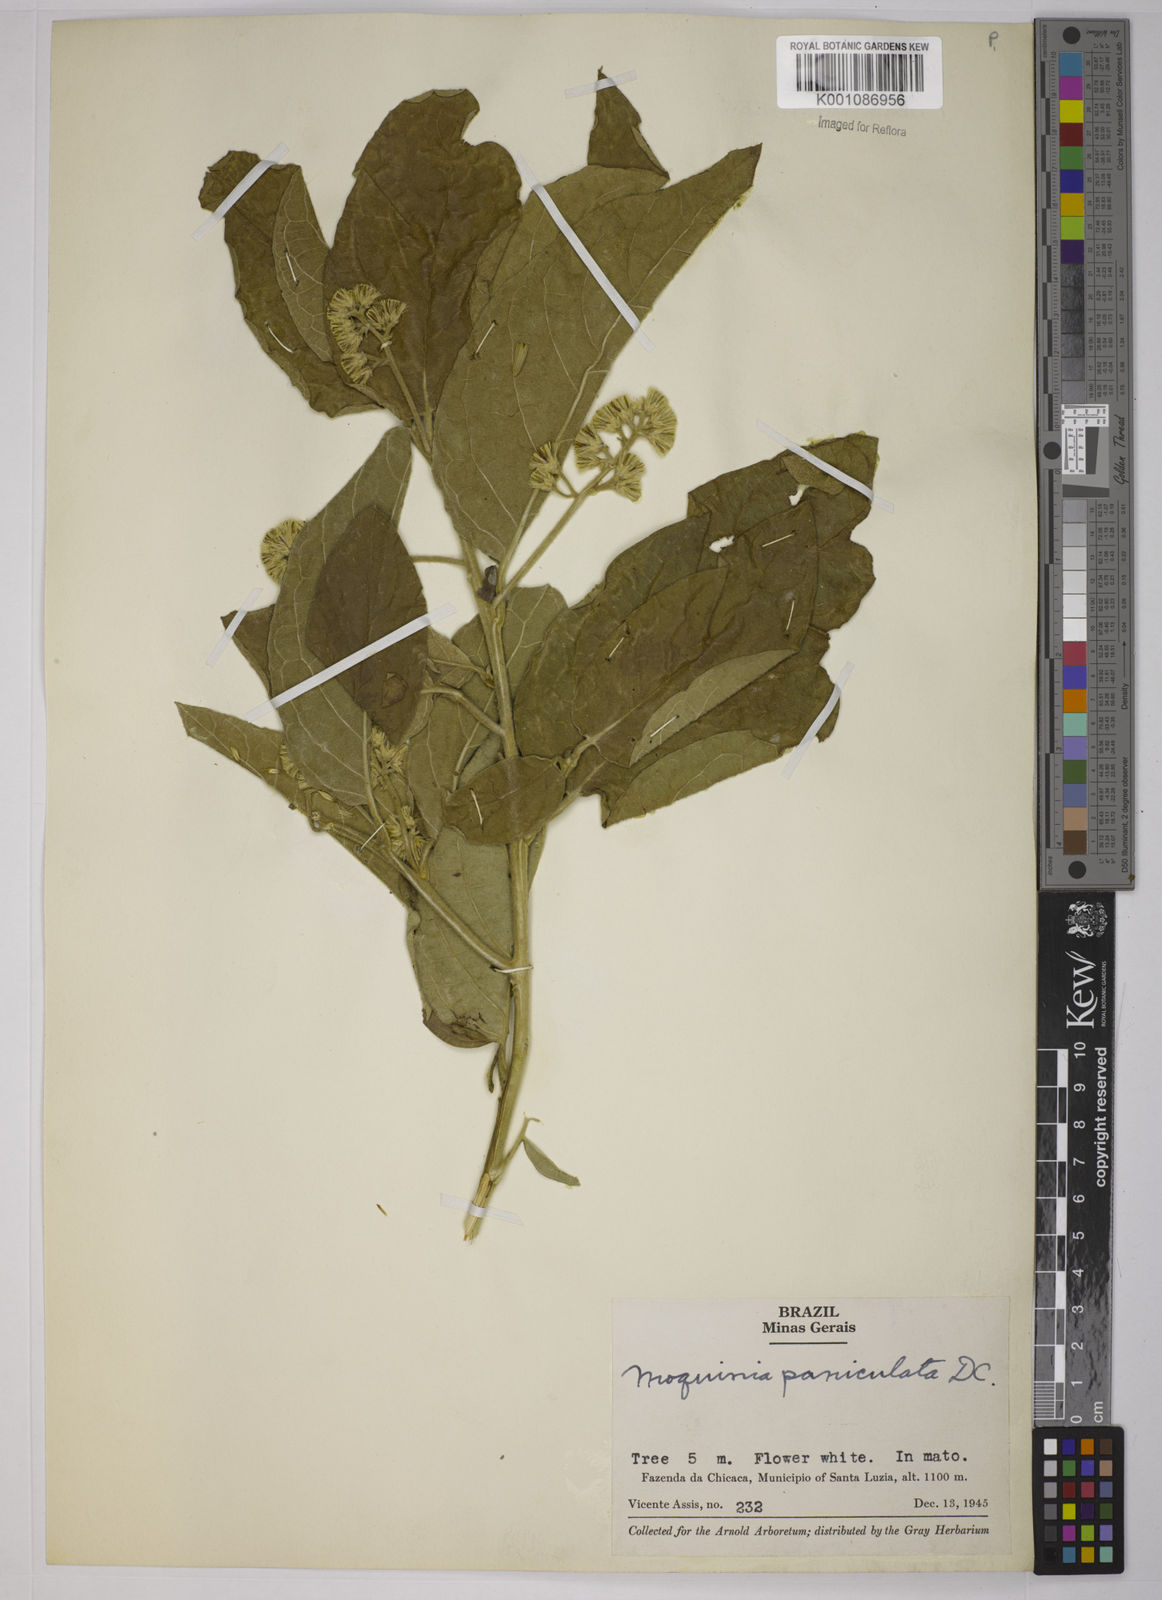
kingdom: Plantae
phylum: Tracheophyta
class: Magnoliopsida
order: Asterales
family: Asteraceae
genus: Moquiniastrum
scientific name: Moquiniastrum polymorphum
